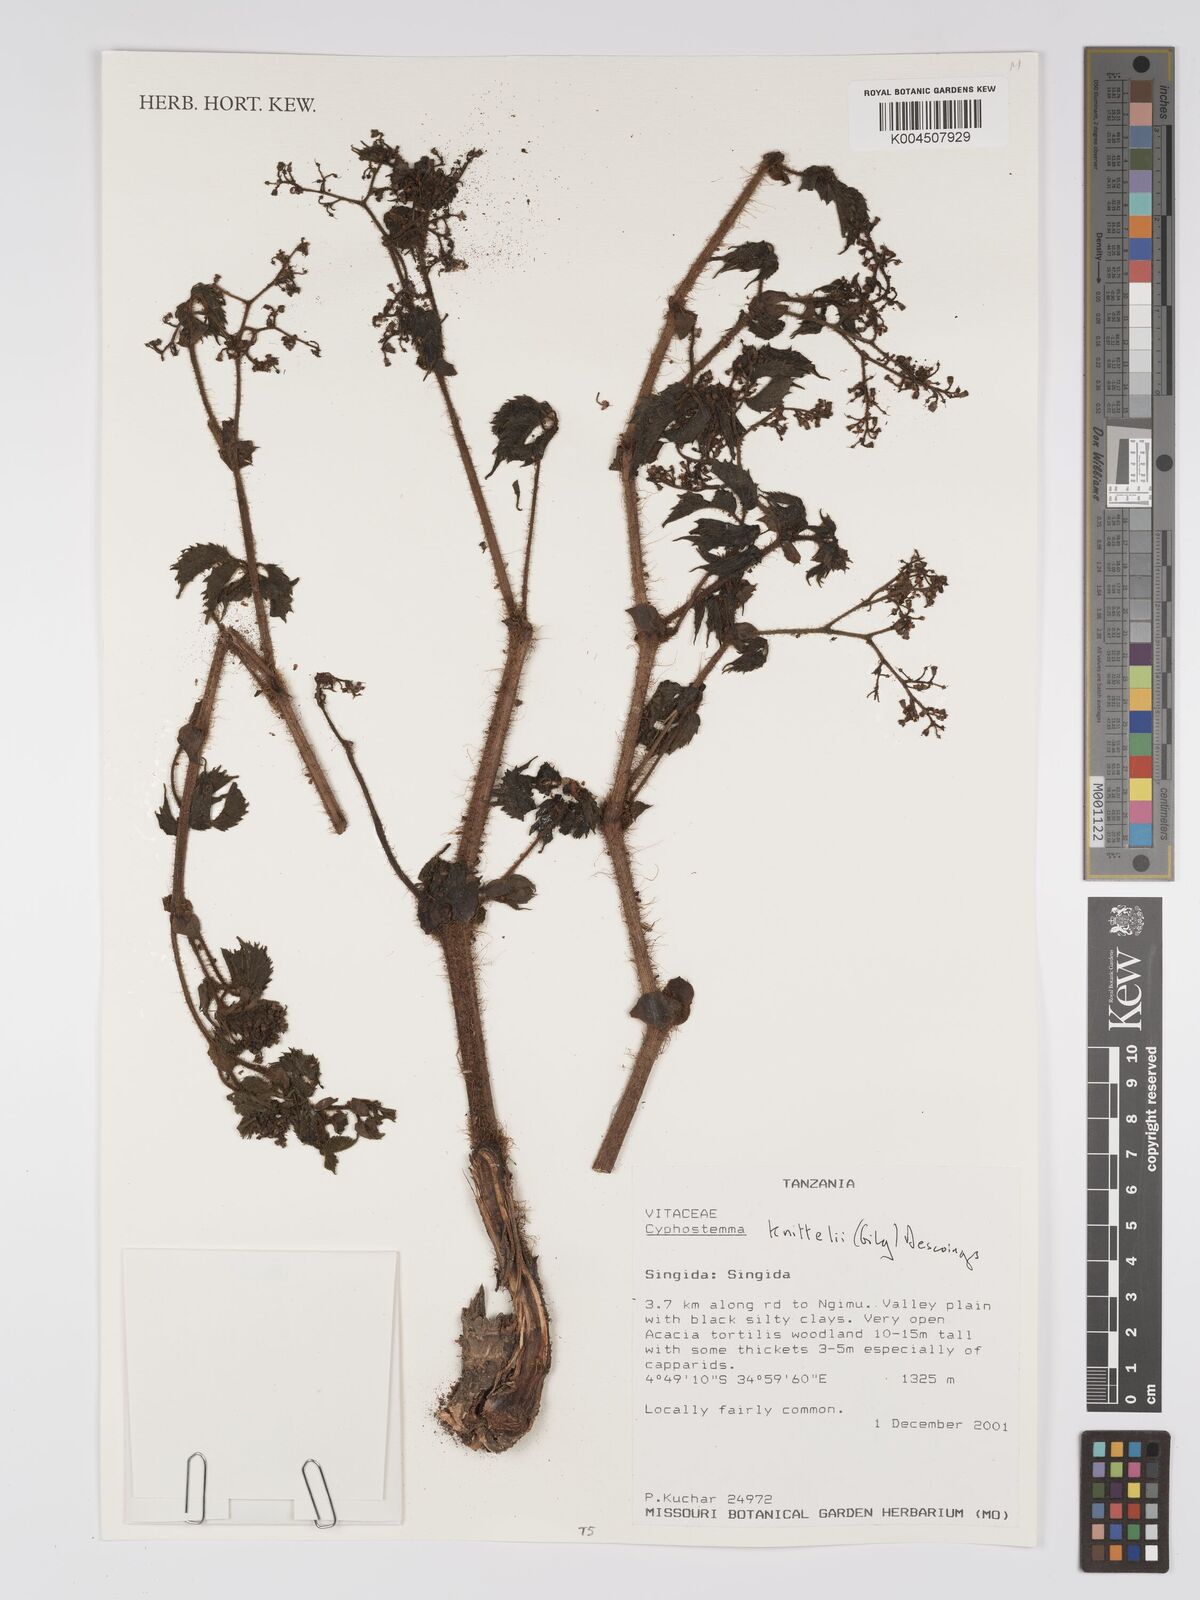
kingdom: Plantae
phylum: Tracheophyta
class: Magnoliopsida
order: Vitales
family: Vitaceae
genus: Cyphostemma
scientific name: Cyphostemma knittelii
